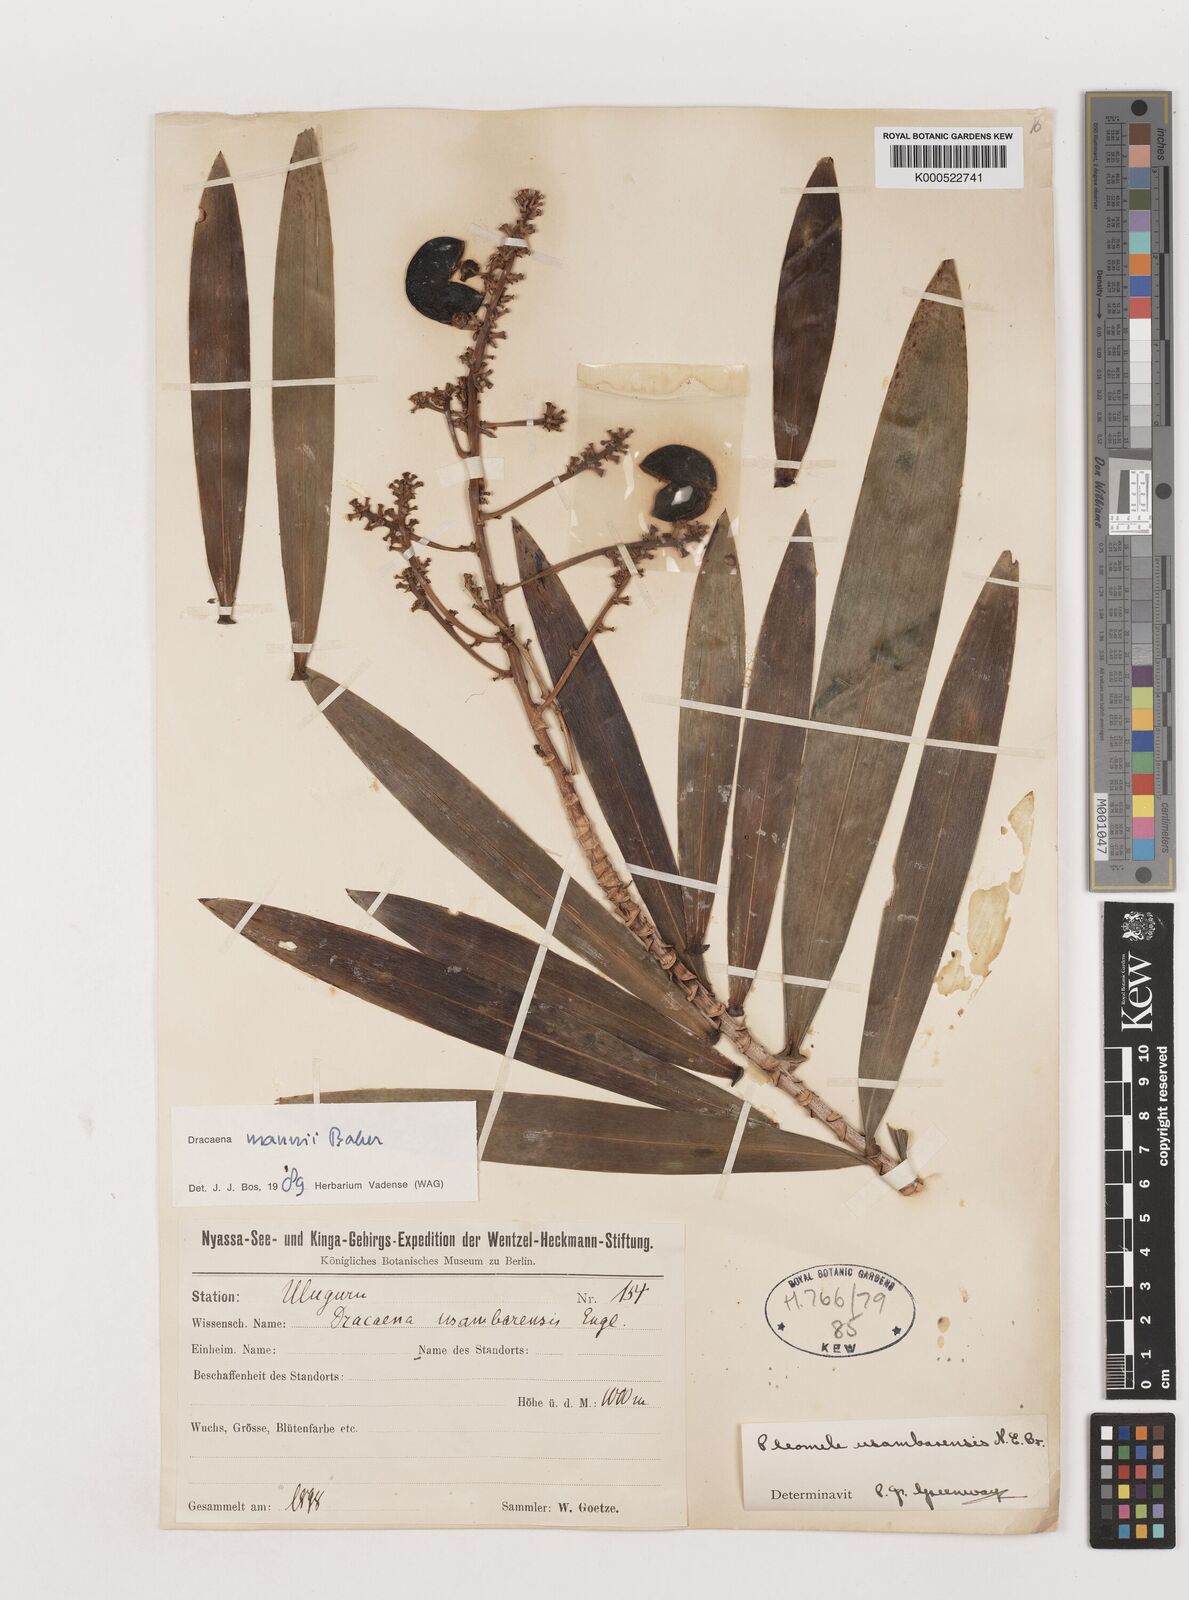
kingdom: Plantae
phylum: Tracheophyta
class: Liliopsida
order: Asparagales
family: Asparagaceae
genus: Dracaena
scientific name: Dracaena mannii
